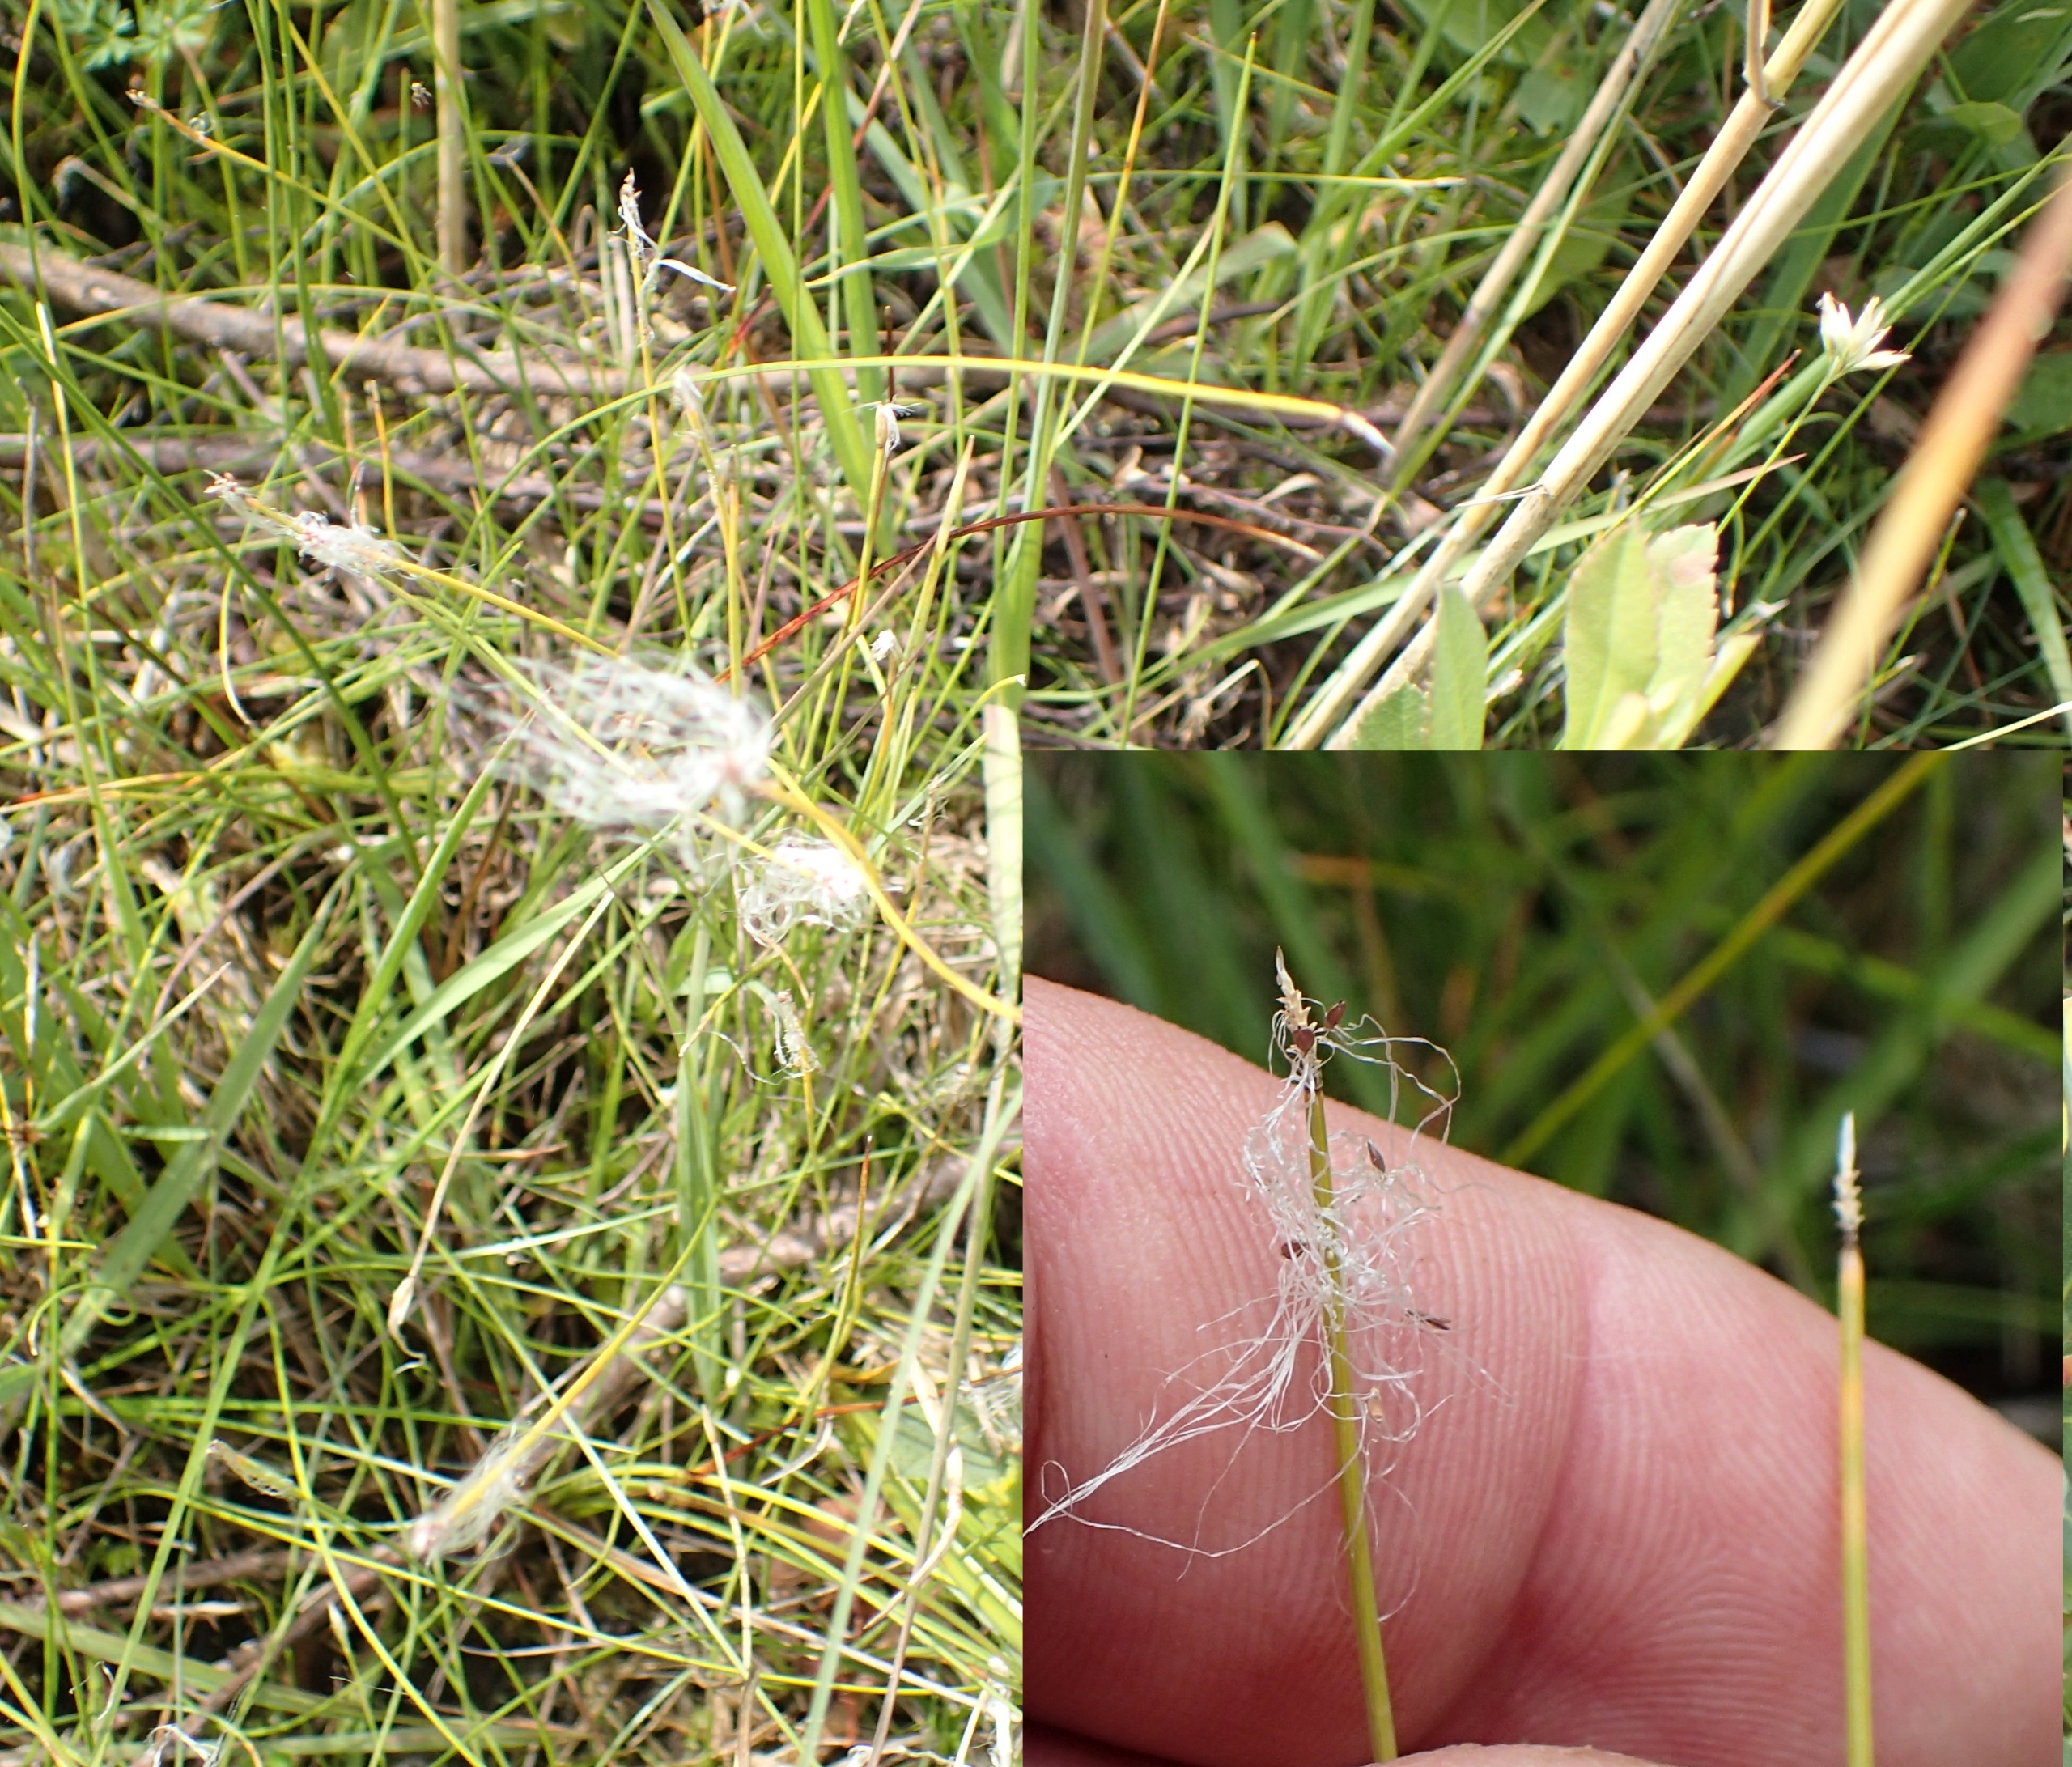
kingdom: Plantae
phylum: Tracheophyta
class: Liliopsida
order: Poales
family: Cyperaceae
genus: Trichophorum
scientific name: Trichophorum alpinum
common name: Liden kæruld
